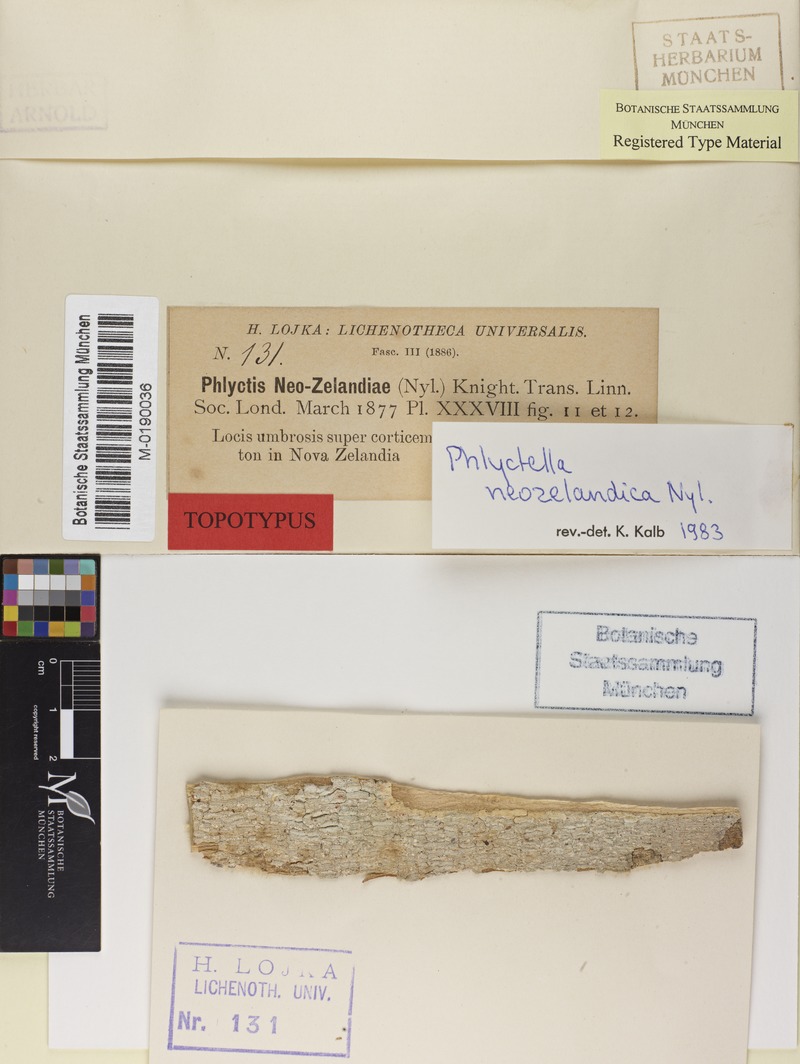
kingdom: Fungi
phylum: Ascomycota
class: Lecanoromycetes
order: Ostropales
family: Phlyctidaceae
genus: Phlyctis
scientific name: Phlyctis
